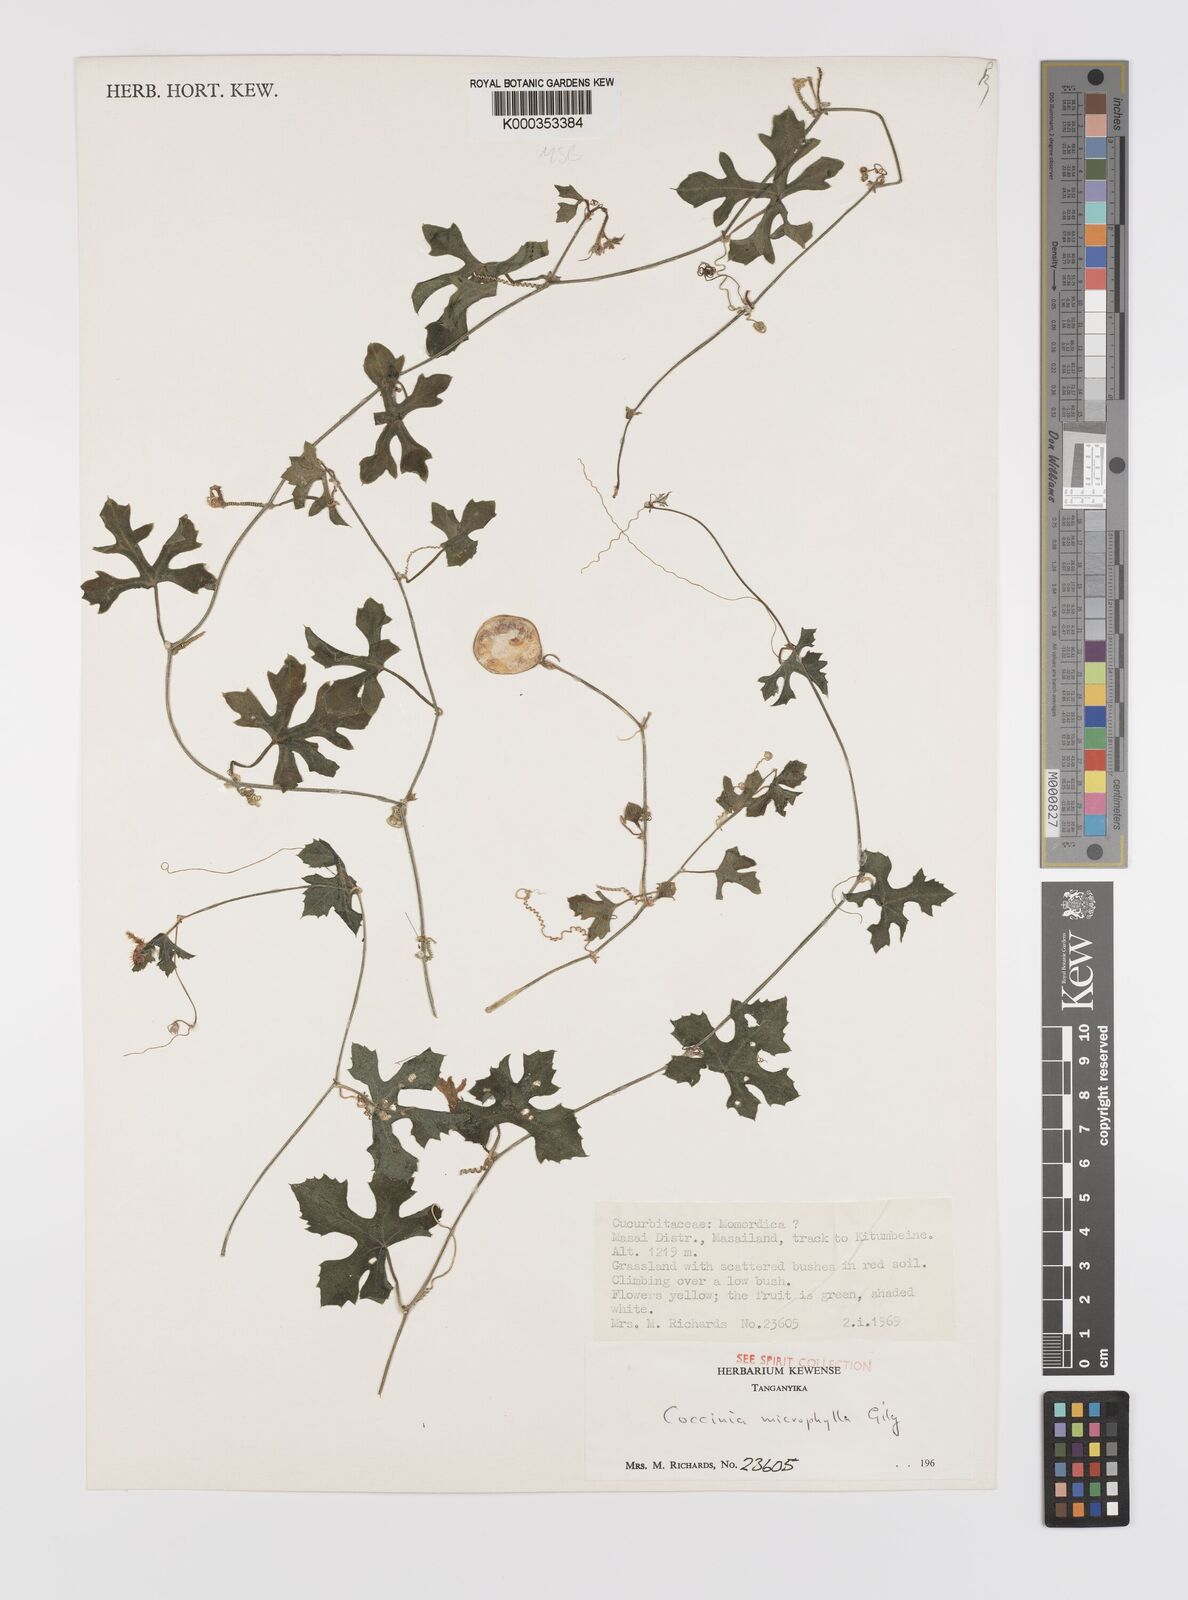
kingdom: Plantae
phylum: Tracheophyta
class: Magnoliopsida
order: Cucurbitales
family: Cucurbitaceae
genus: Coccinia
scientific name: Coccinia microphylla
